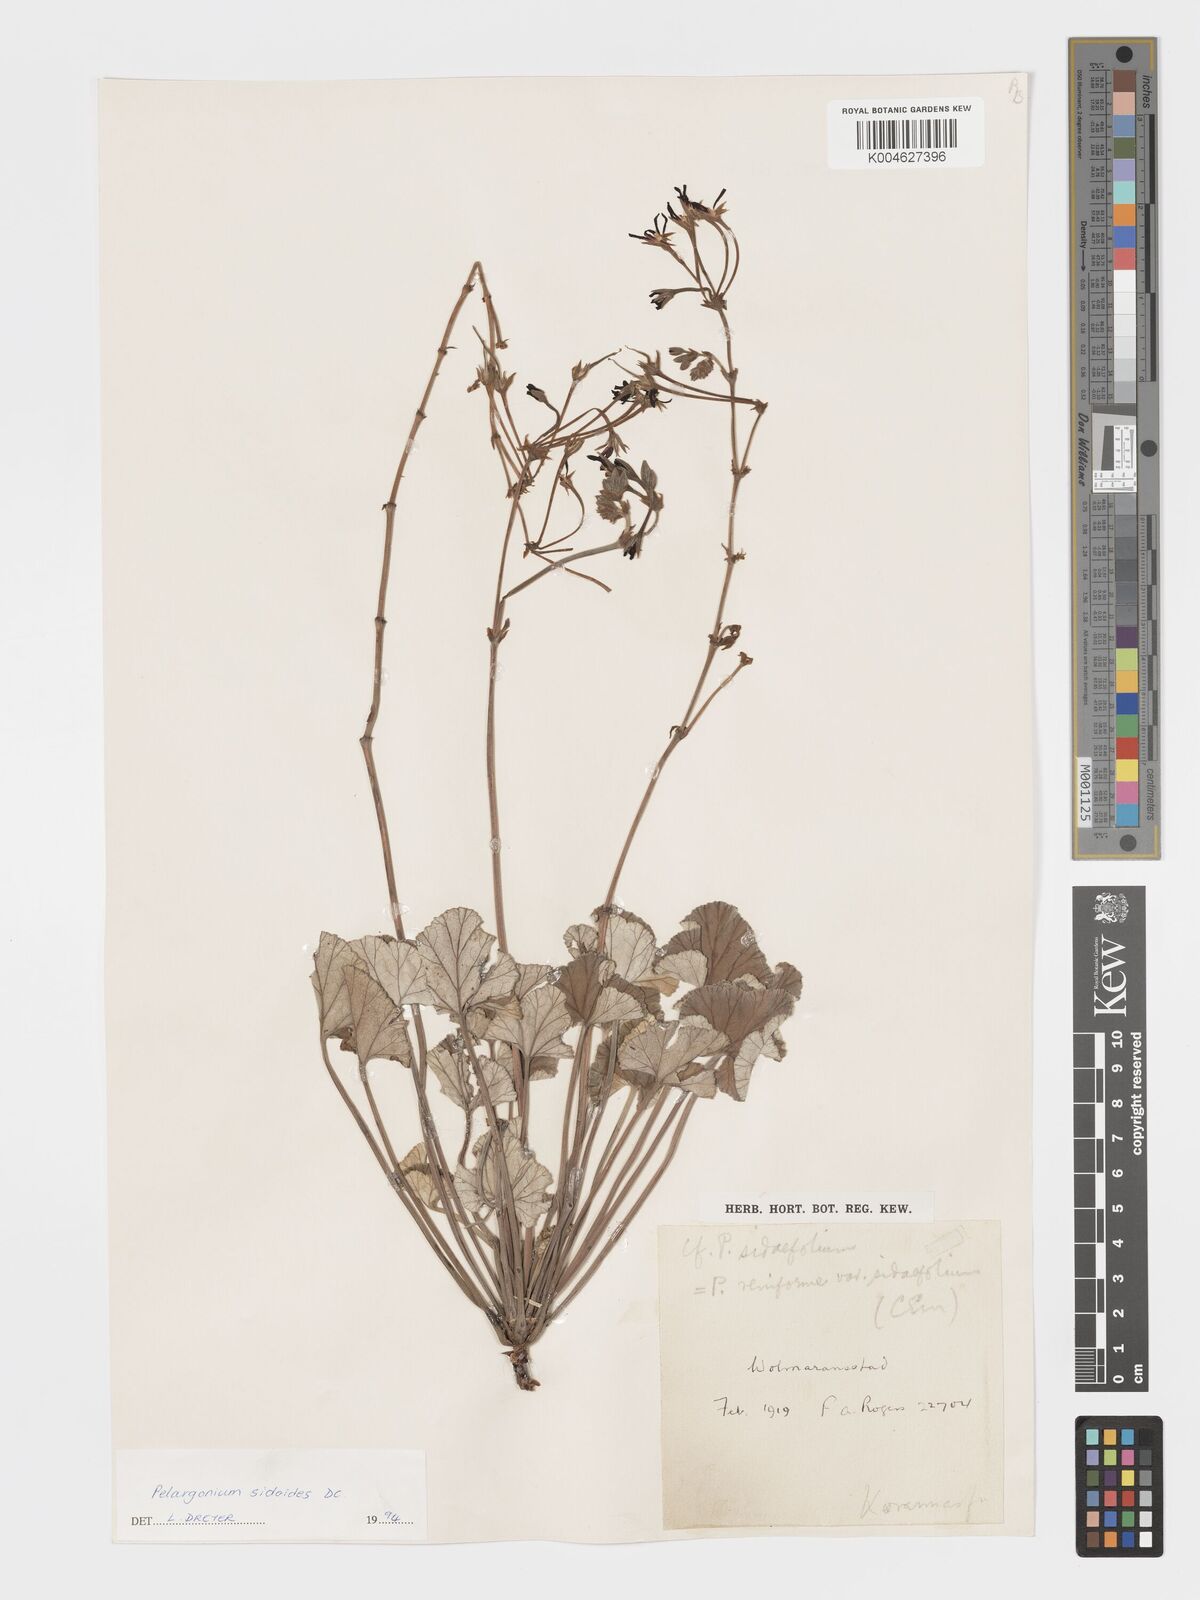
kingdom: Plantae
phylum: Tracheophyta
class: Magnoliopsida
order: Geraniales
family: Geraniaceae
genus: Pelargonium
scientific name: Pelargonium sidoides
